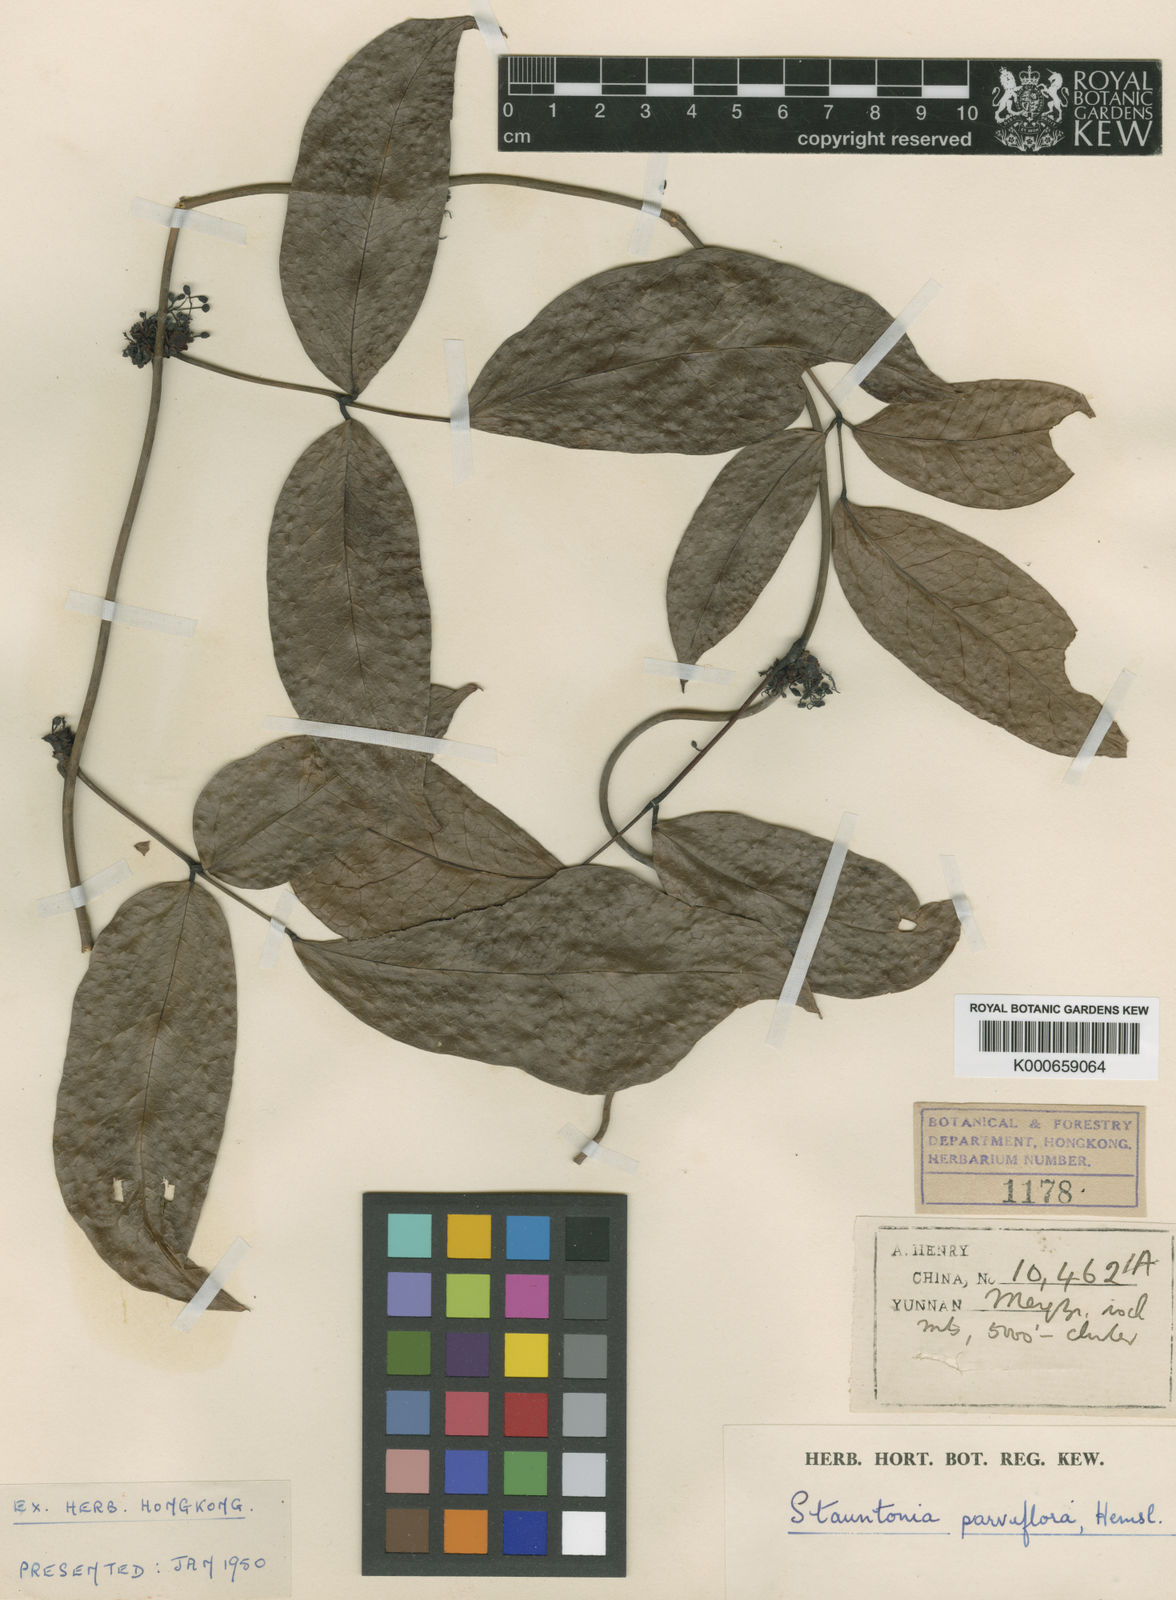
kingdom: Plantae
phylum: Tracheophyta
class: Magnoliopsida
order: Ranunculales
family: Lardizabalaceae
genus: Stauntonia
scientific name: Stauntonia parviflora
